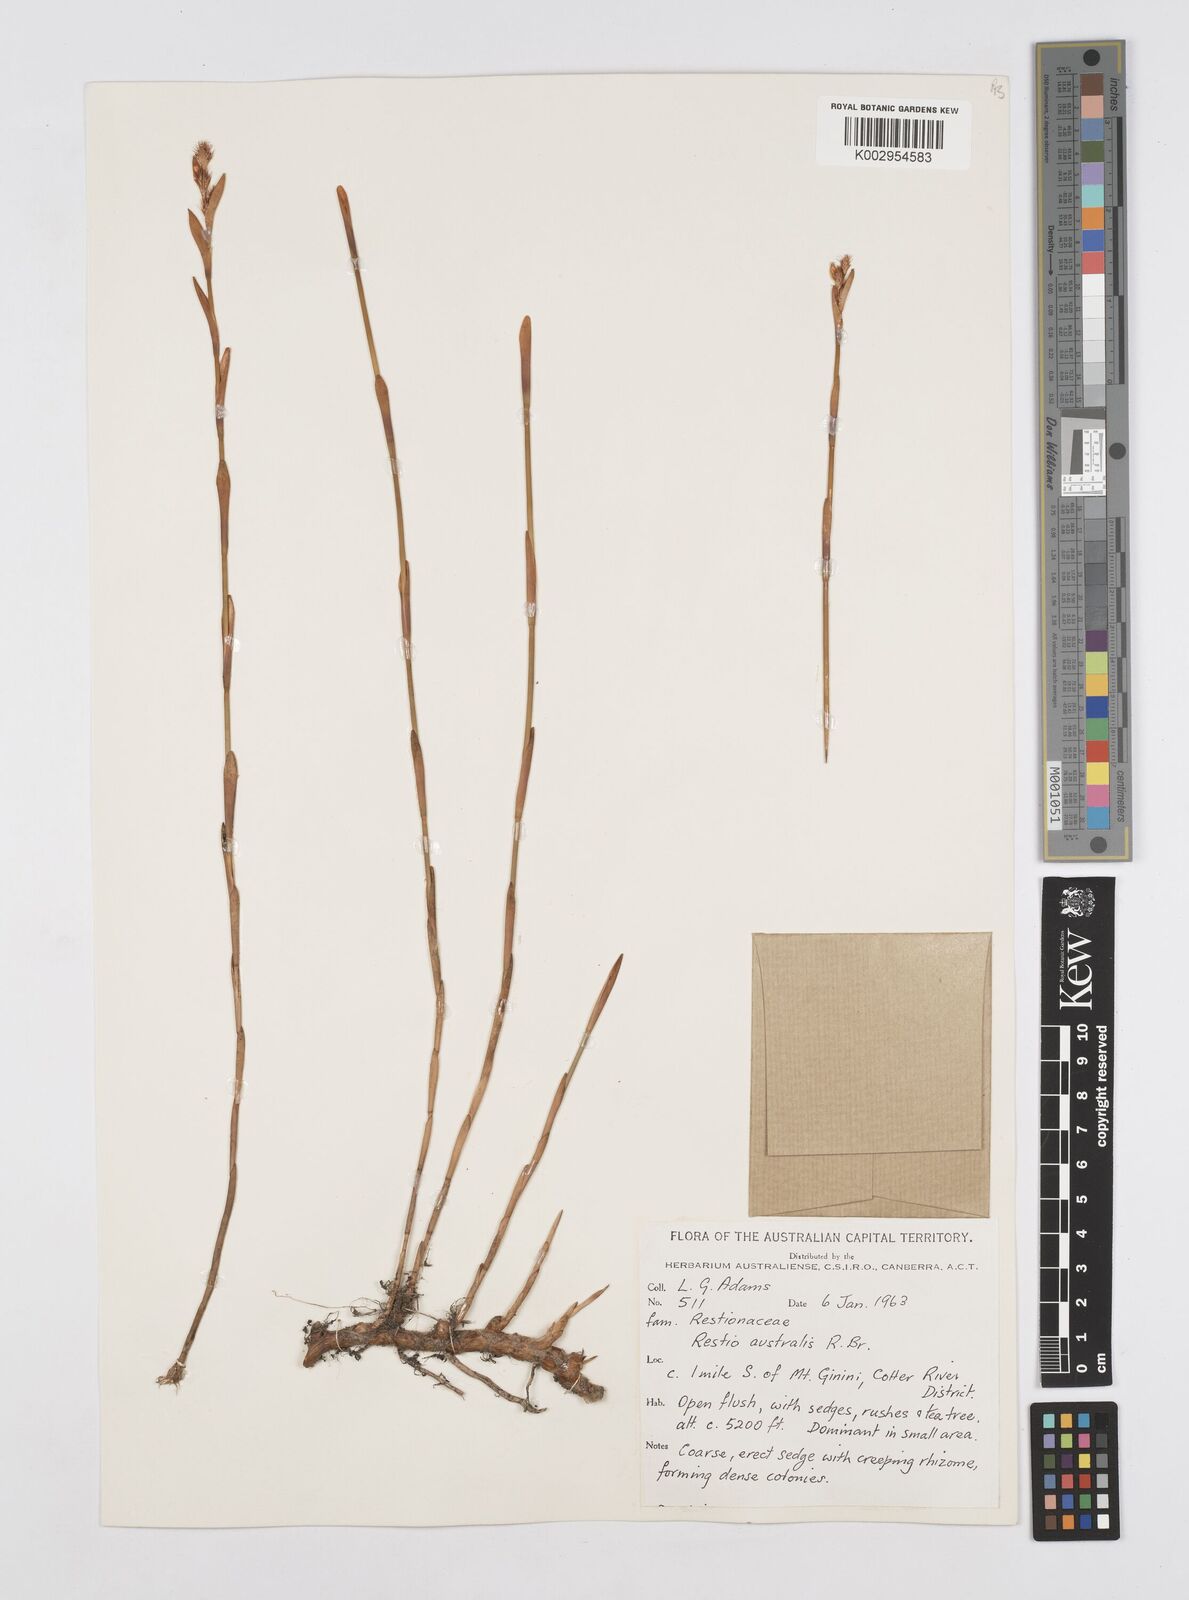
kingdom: Plantae
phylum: Tracheophyta
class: Liliopsida
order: Poales
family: Restionaceae
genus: Baloskion
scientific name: Baloskion australe
